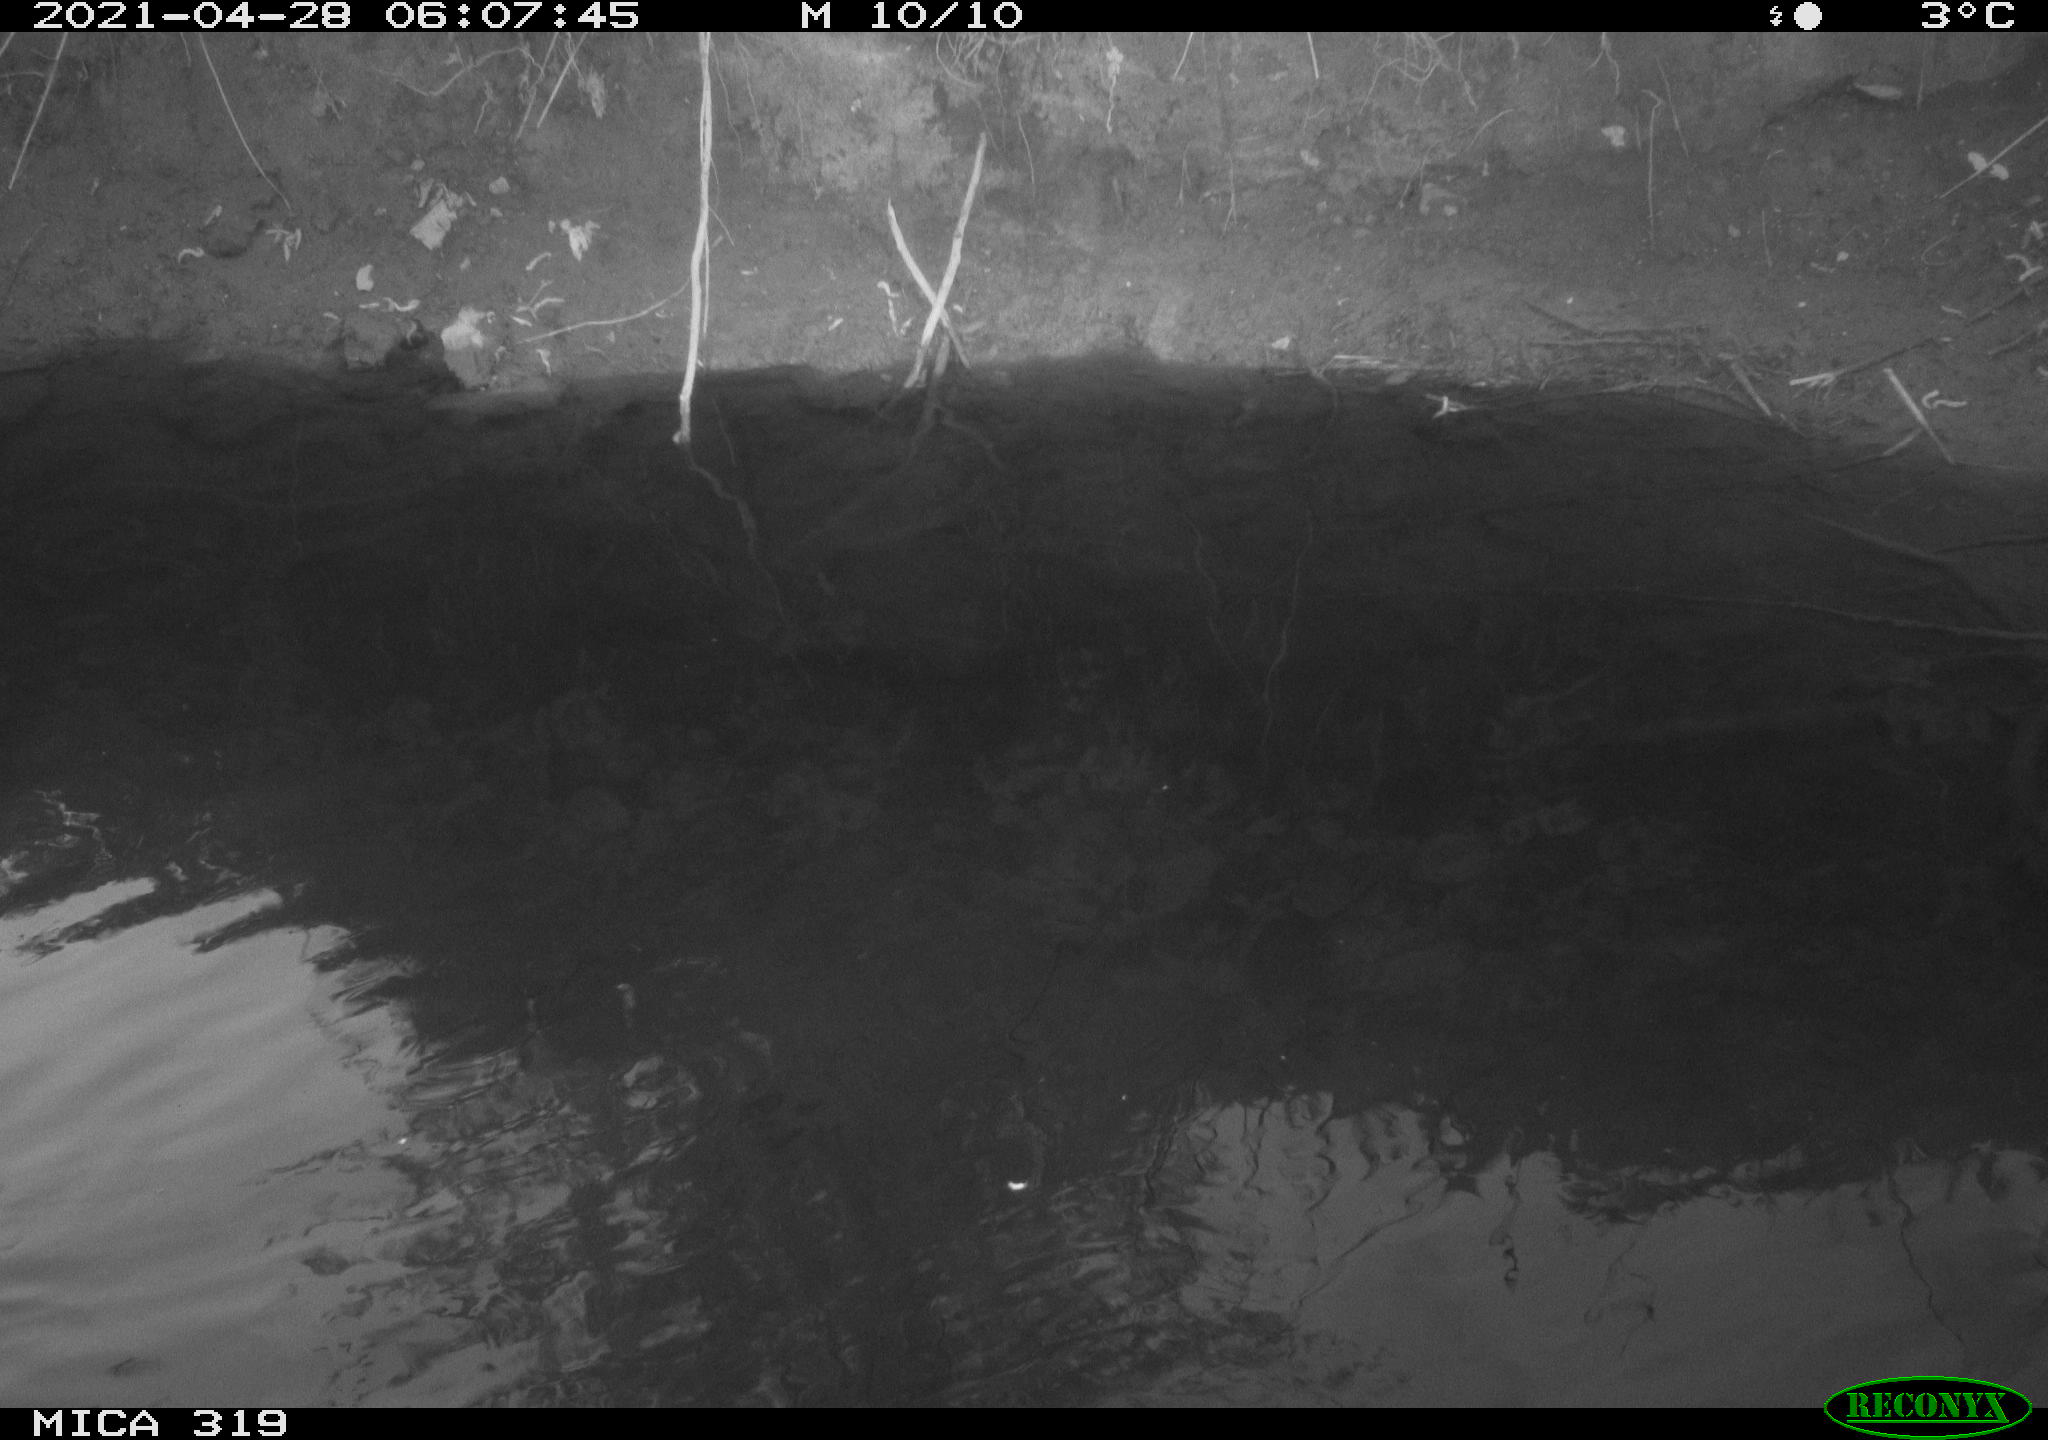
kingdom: Animalia
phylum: Chordata
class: Aves
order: Anseriformes
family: Anatidae
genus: Anas
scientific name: Anas platyrhynchos
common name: Mallard
